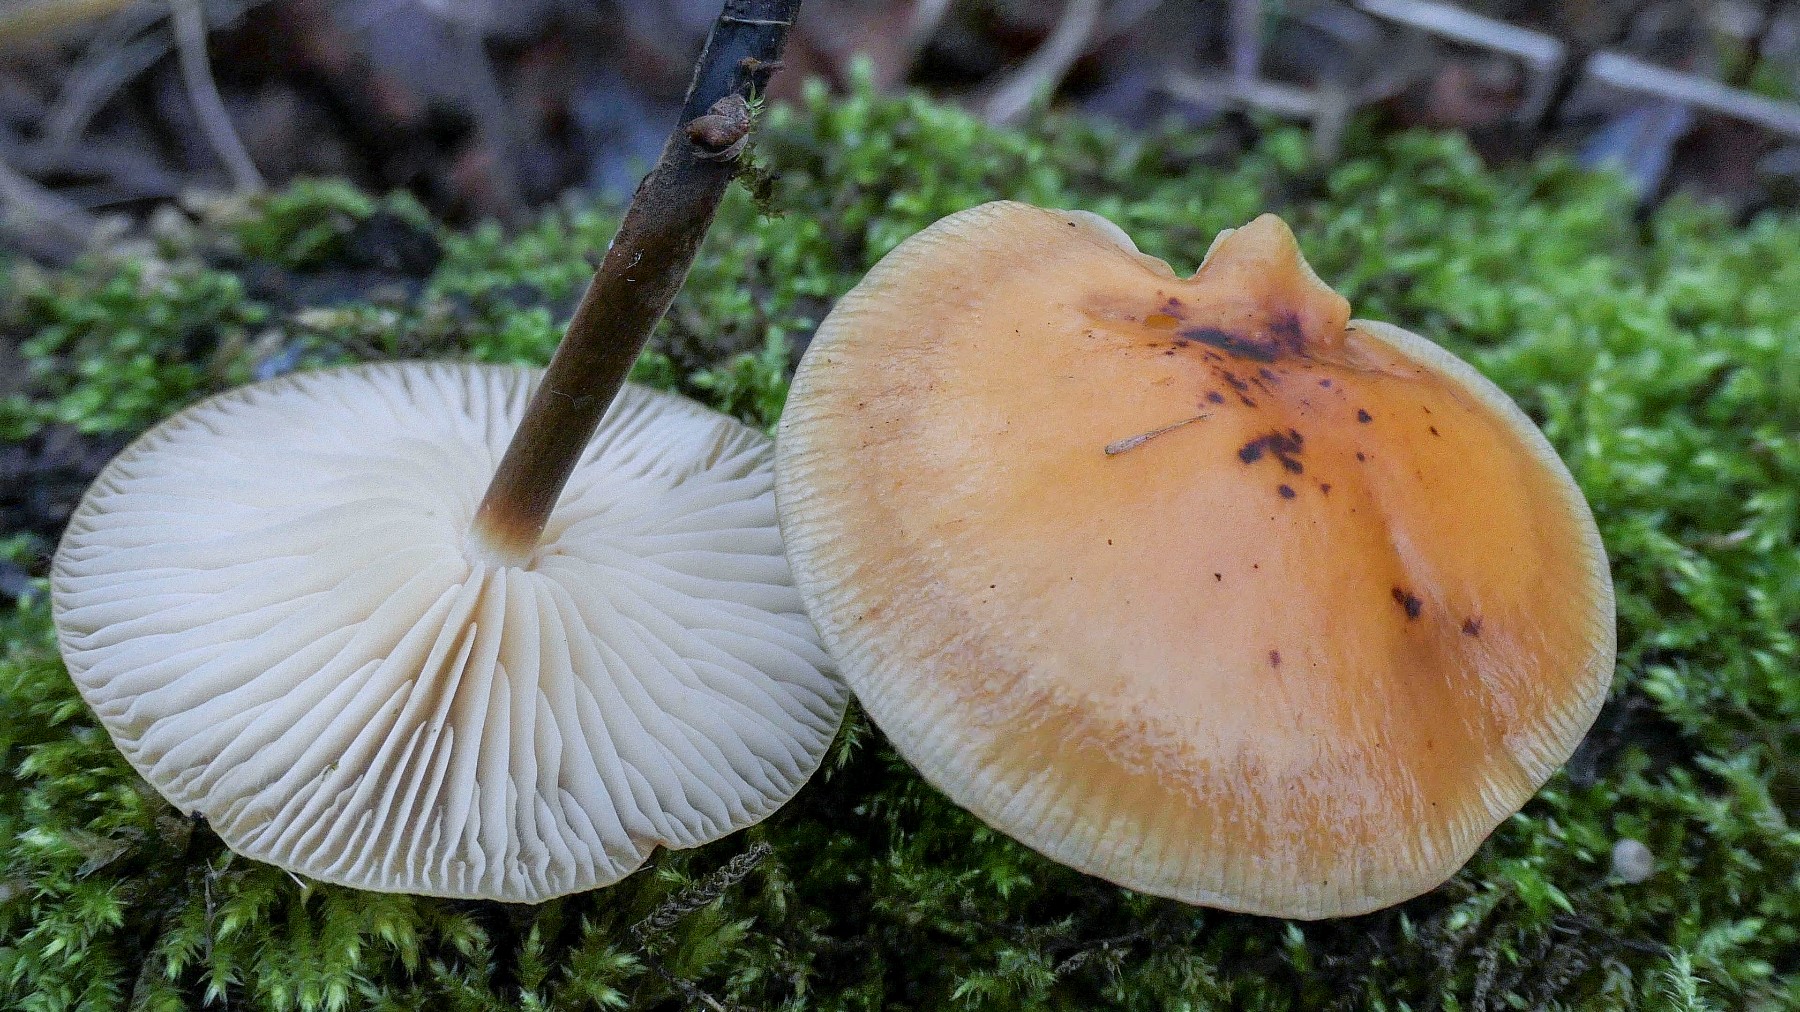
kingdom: Fungi
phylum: Basidiomycota
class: Agaricomycetes
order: Agaricales
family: Physalacriaceae
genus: Flammulina
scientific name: Flammulina elastica
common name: pile-fløjlsfod
